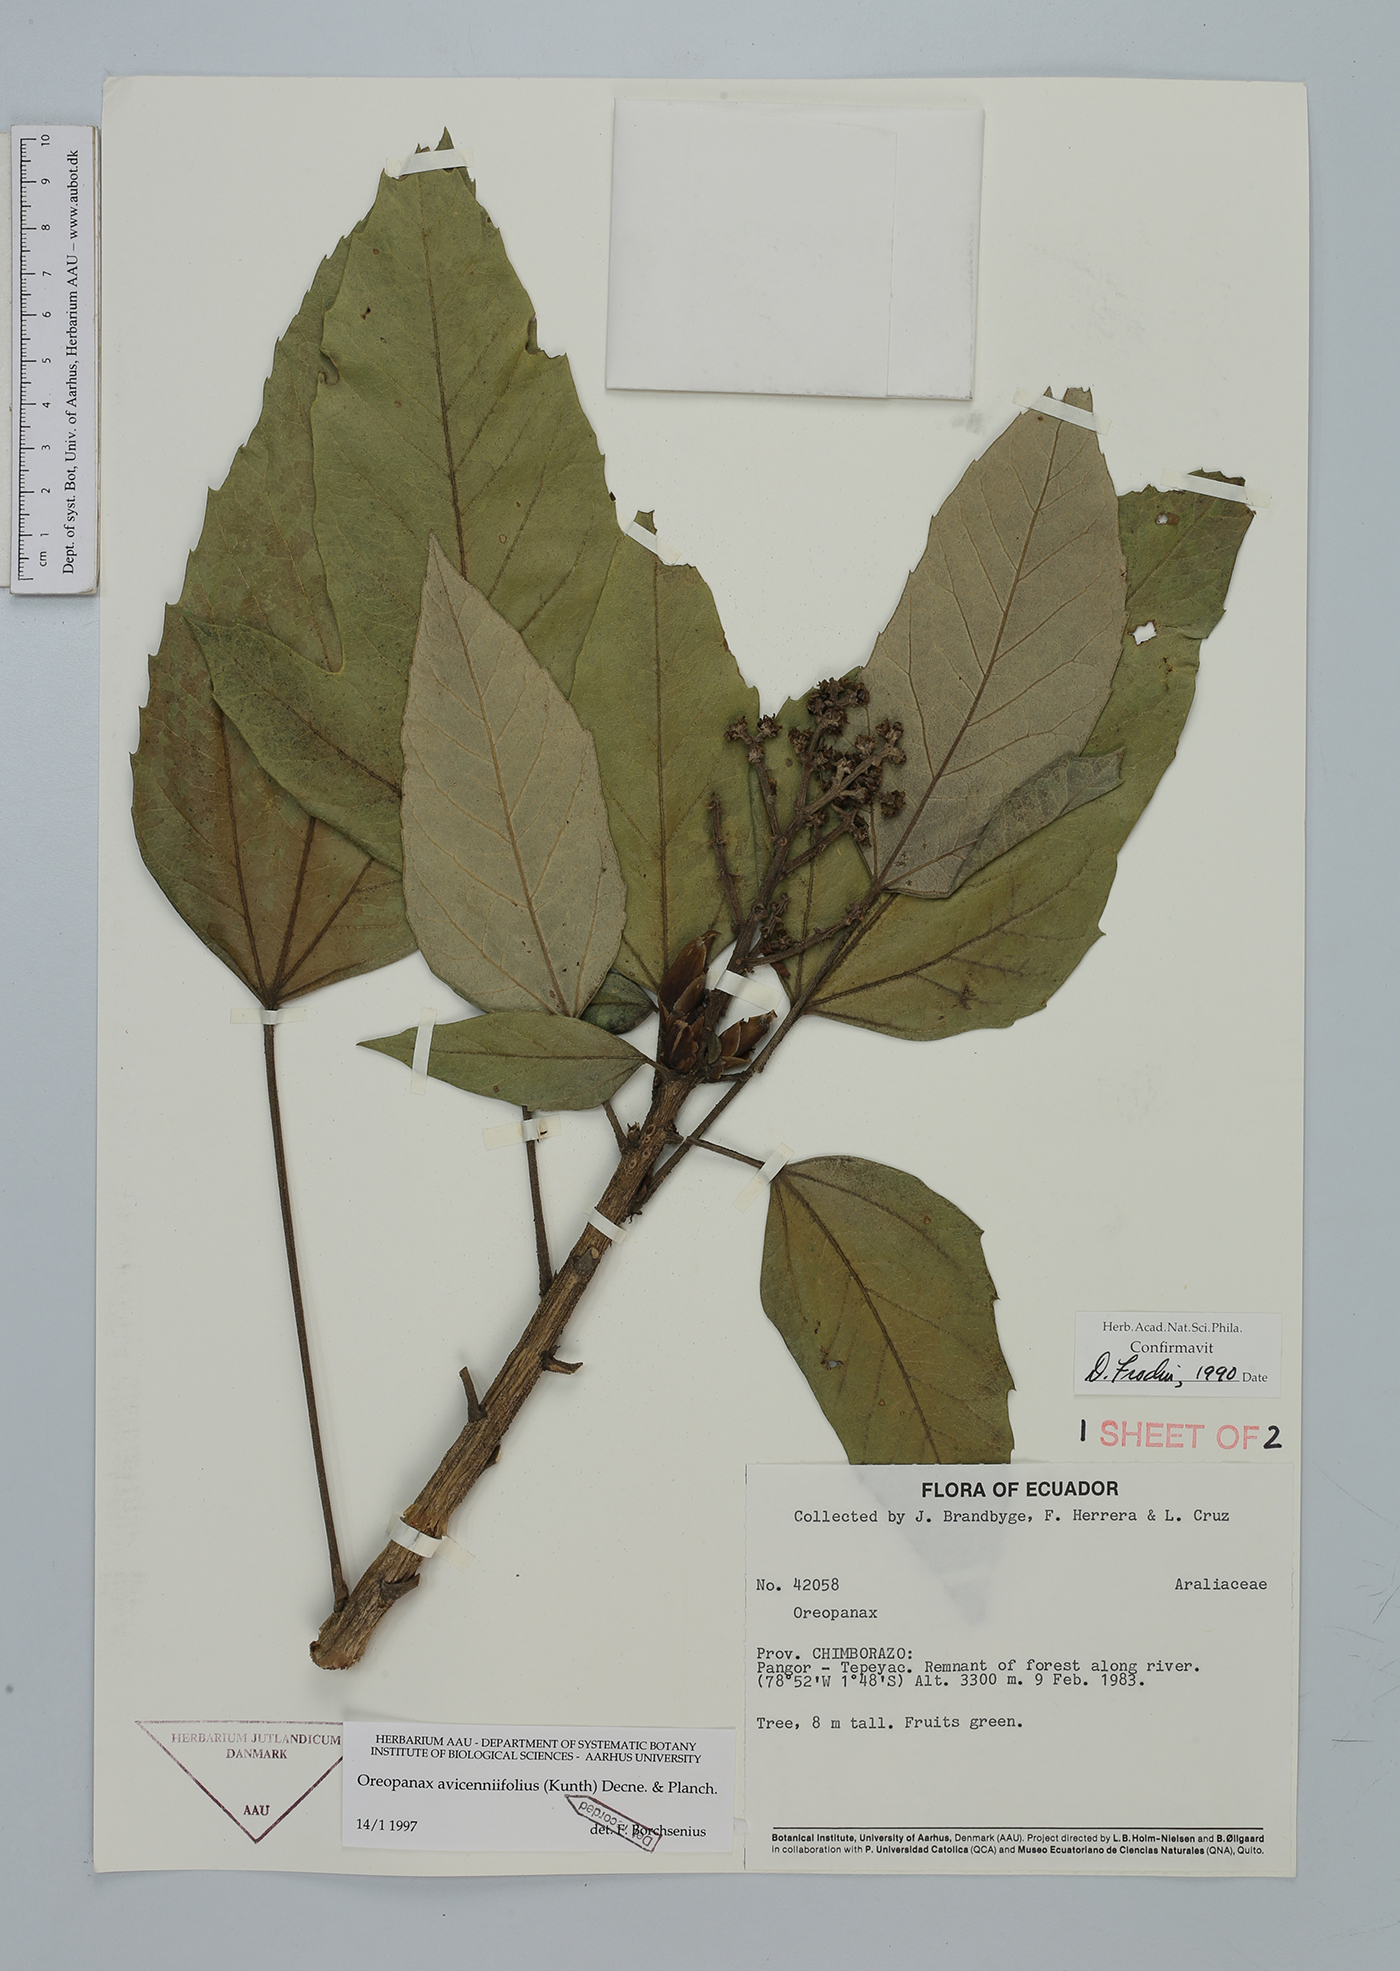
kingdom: Plantae
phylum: Tracheophyta
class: Magnoliopsida
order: Apiales
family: Araliaceae
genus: Oreopanax
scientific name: Oreopanax avicenniifolius
